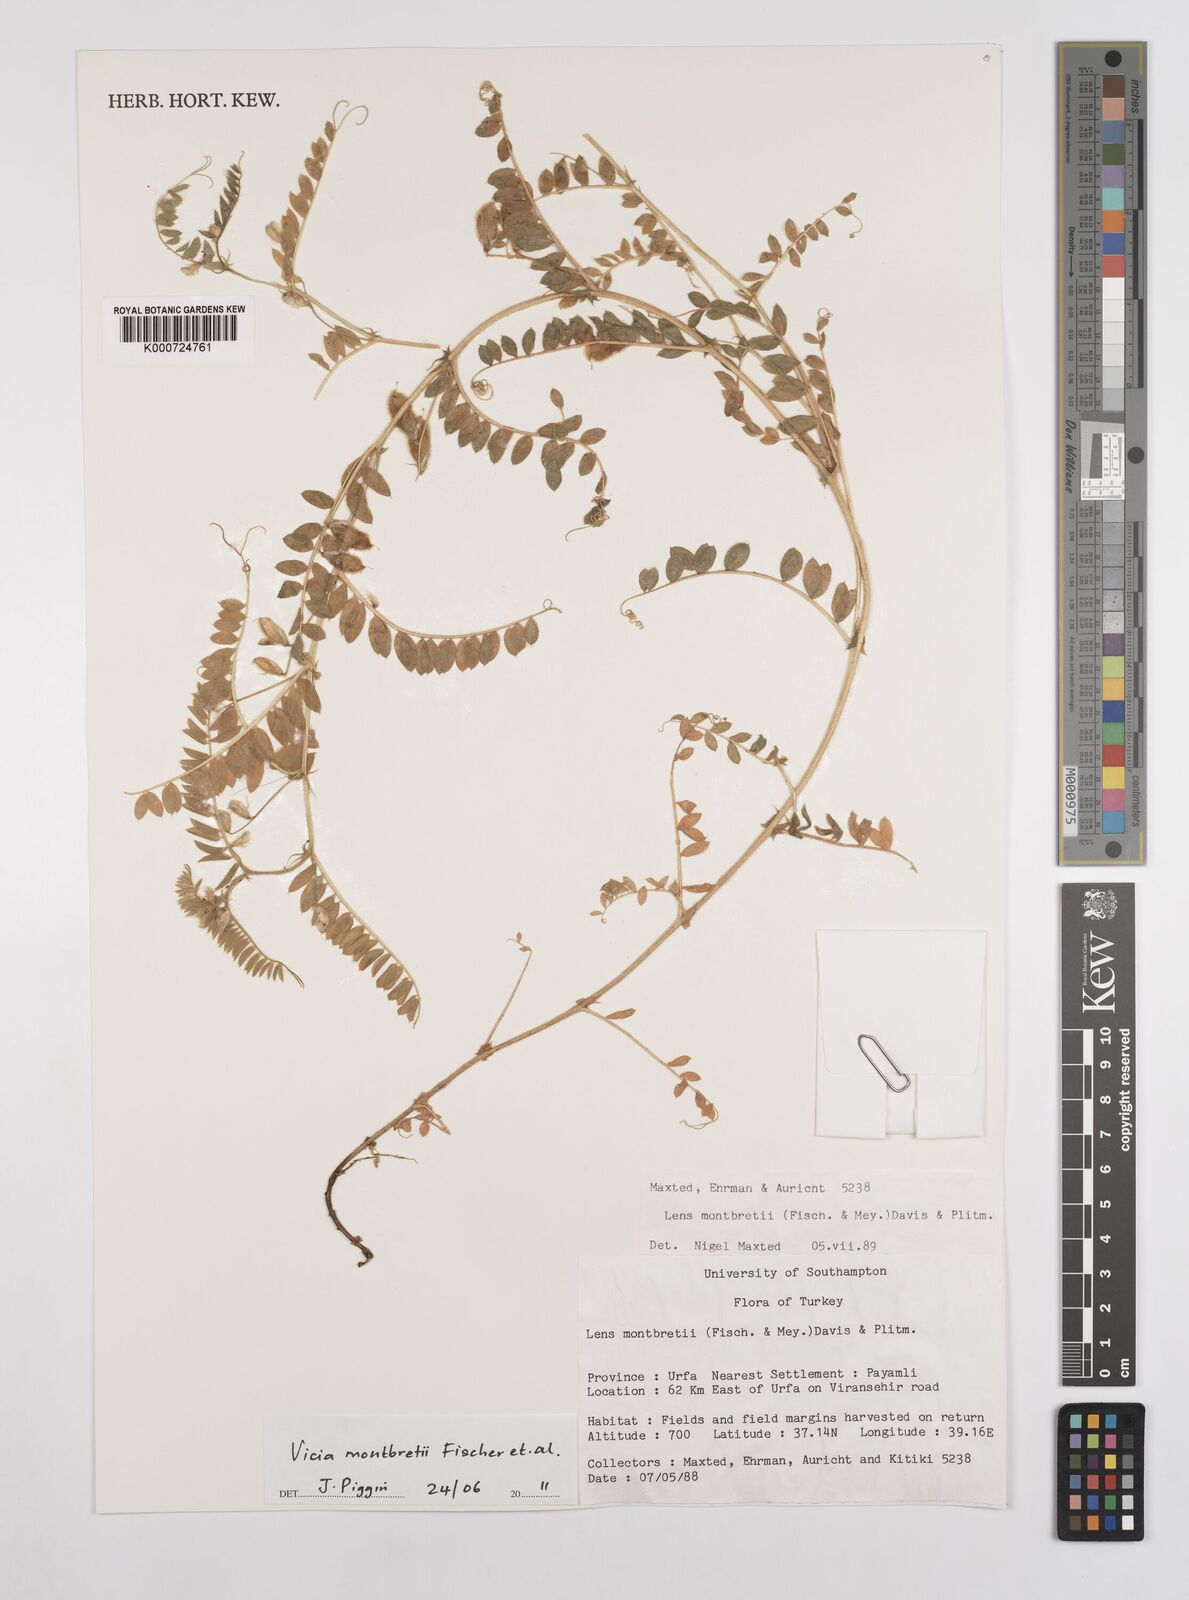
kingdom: Plantae
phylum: Tracheophyta
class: Magnoliopsida
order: Fabales
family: Fabaceae
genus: Vicia
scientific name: Vicia montbretii
